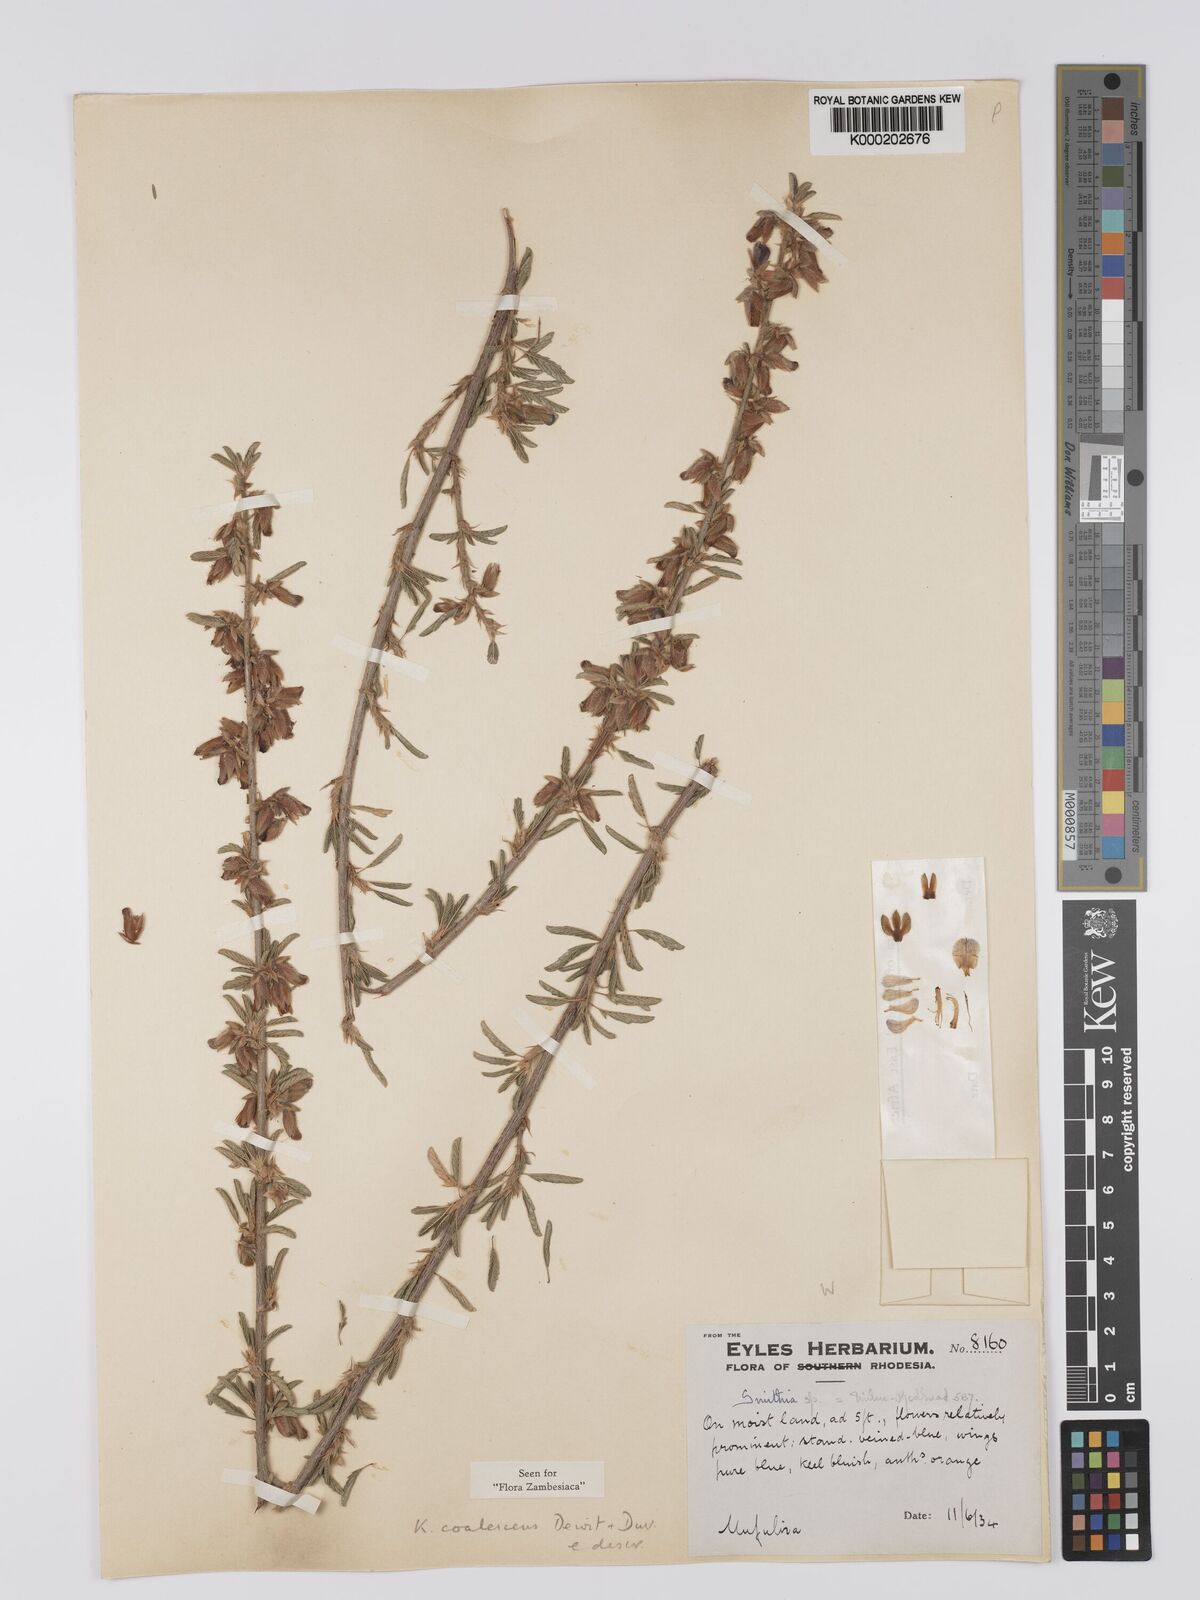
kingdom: Plantae
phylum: Tracheophyta
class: Magnoliopsida
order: Fabales
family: Fabaceae
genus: Kotschya
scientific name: Kotschya coalescens
